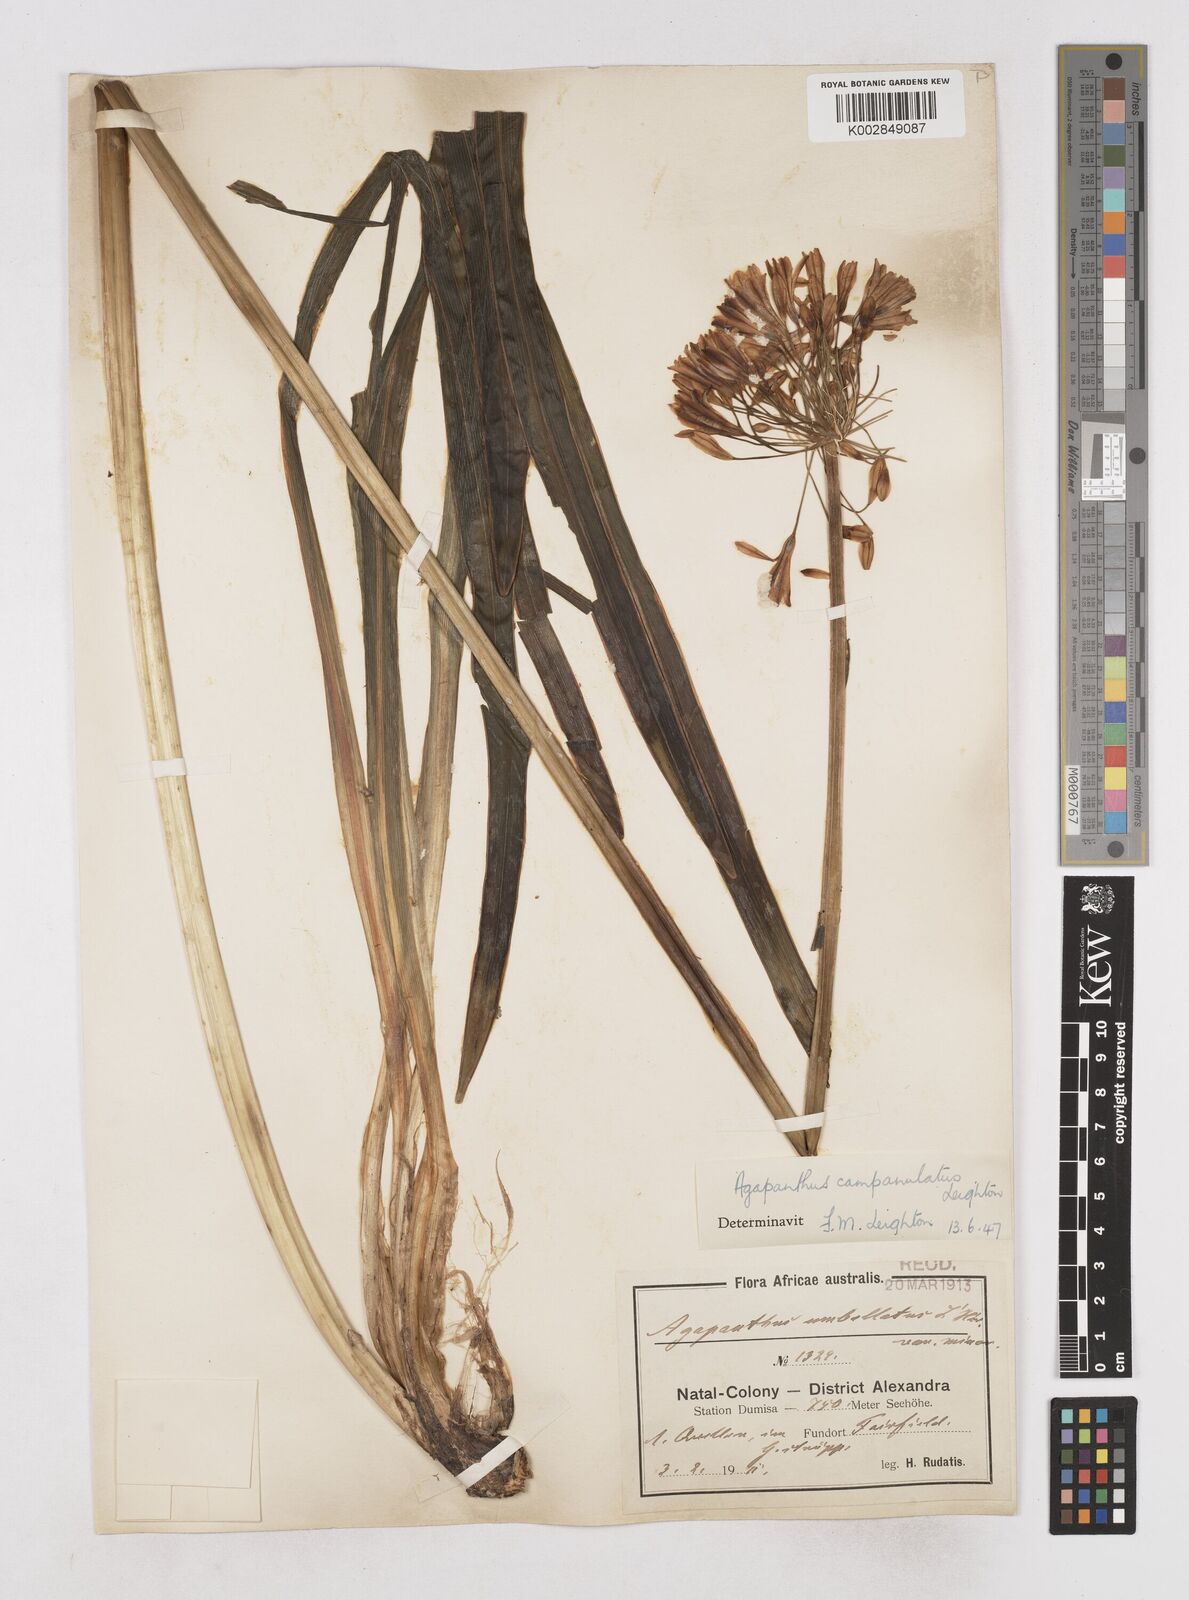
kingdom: Plantae
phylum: Tracheophyta
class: Liliopsida
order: Asparagales
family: Amaryllidaceae
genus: Agapanthus
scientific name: Agapanthus campanulatus
